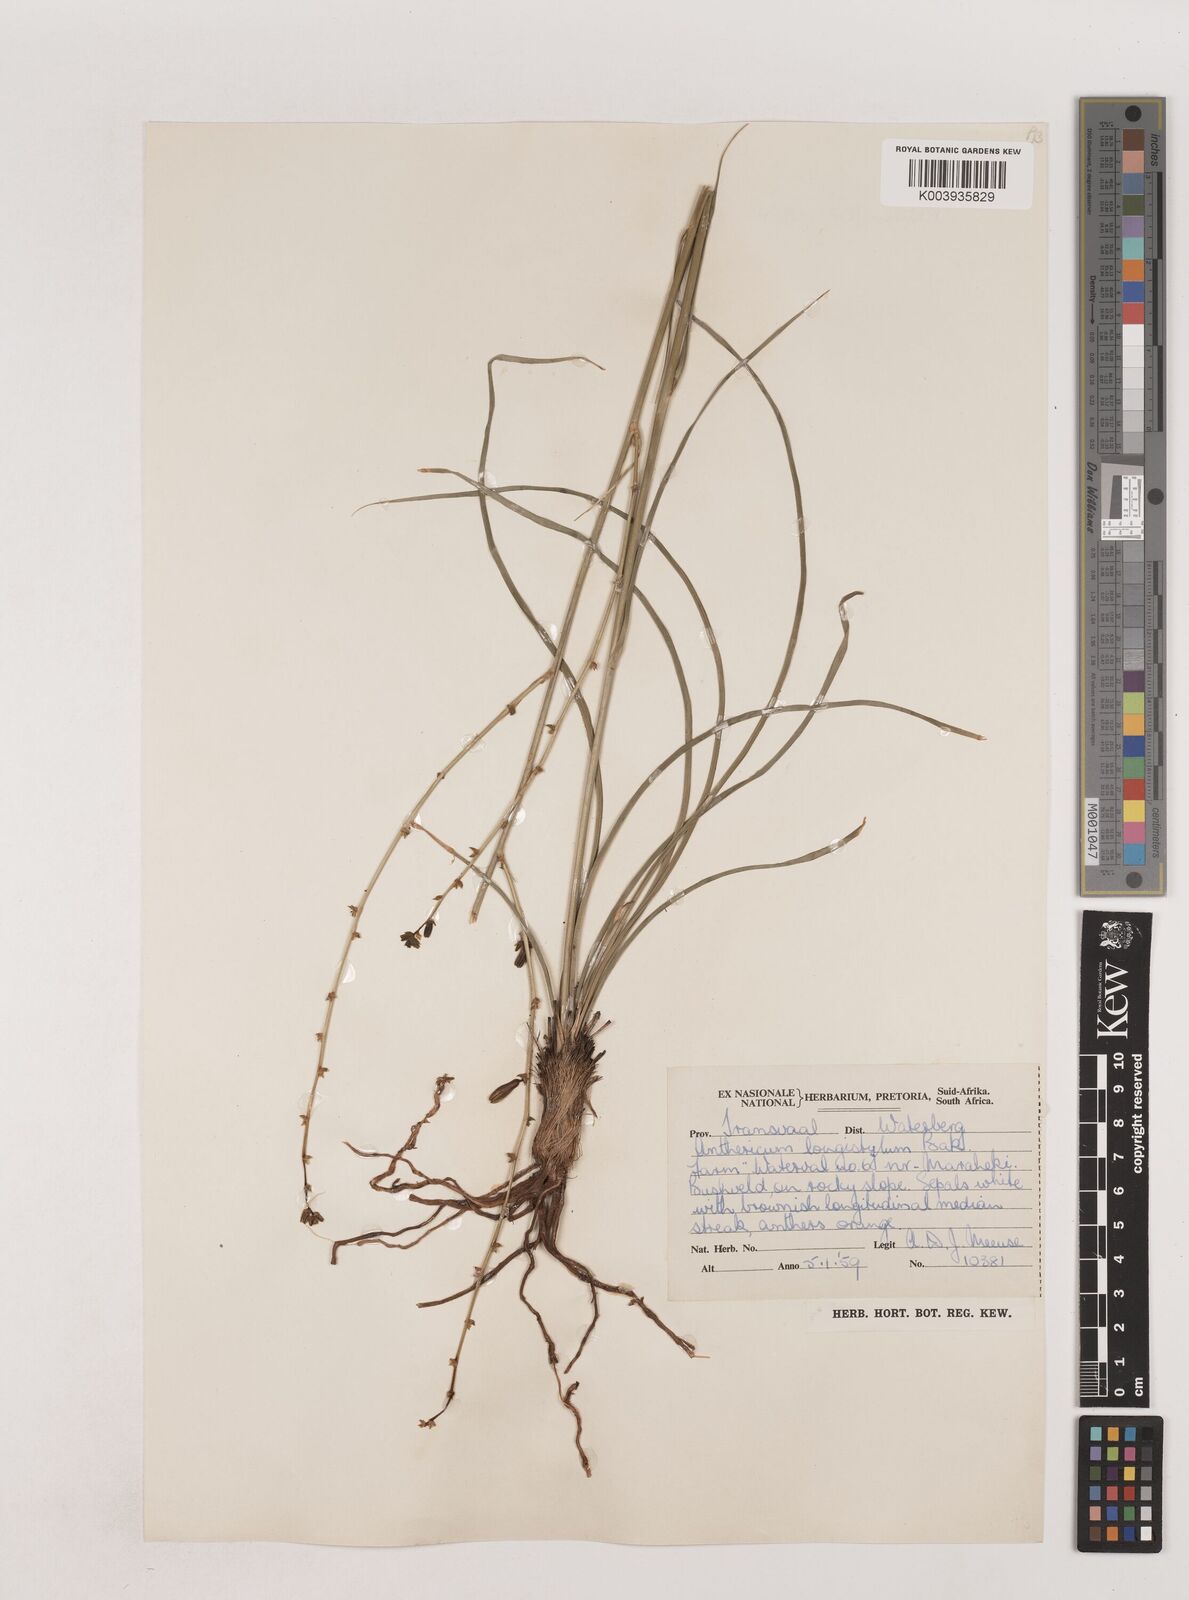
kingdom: Plantae
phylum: Tracheophyta
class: Liliopsida
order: Asparagales
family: Asparagaceae
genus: Chlorophytum
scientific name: Chlorophytum recurvifolium
